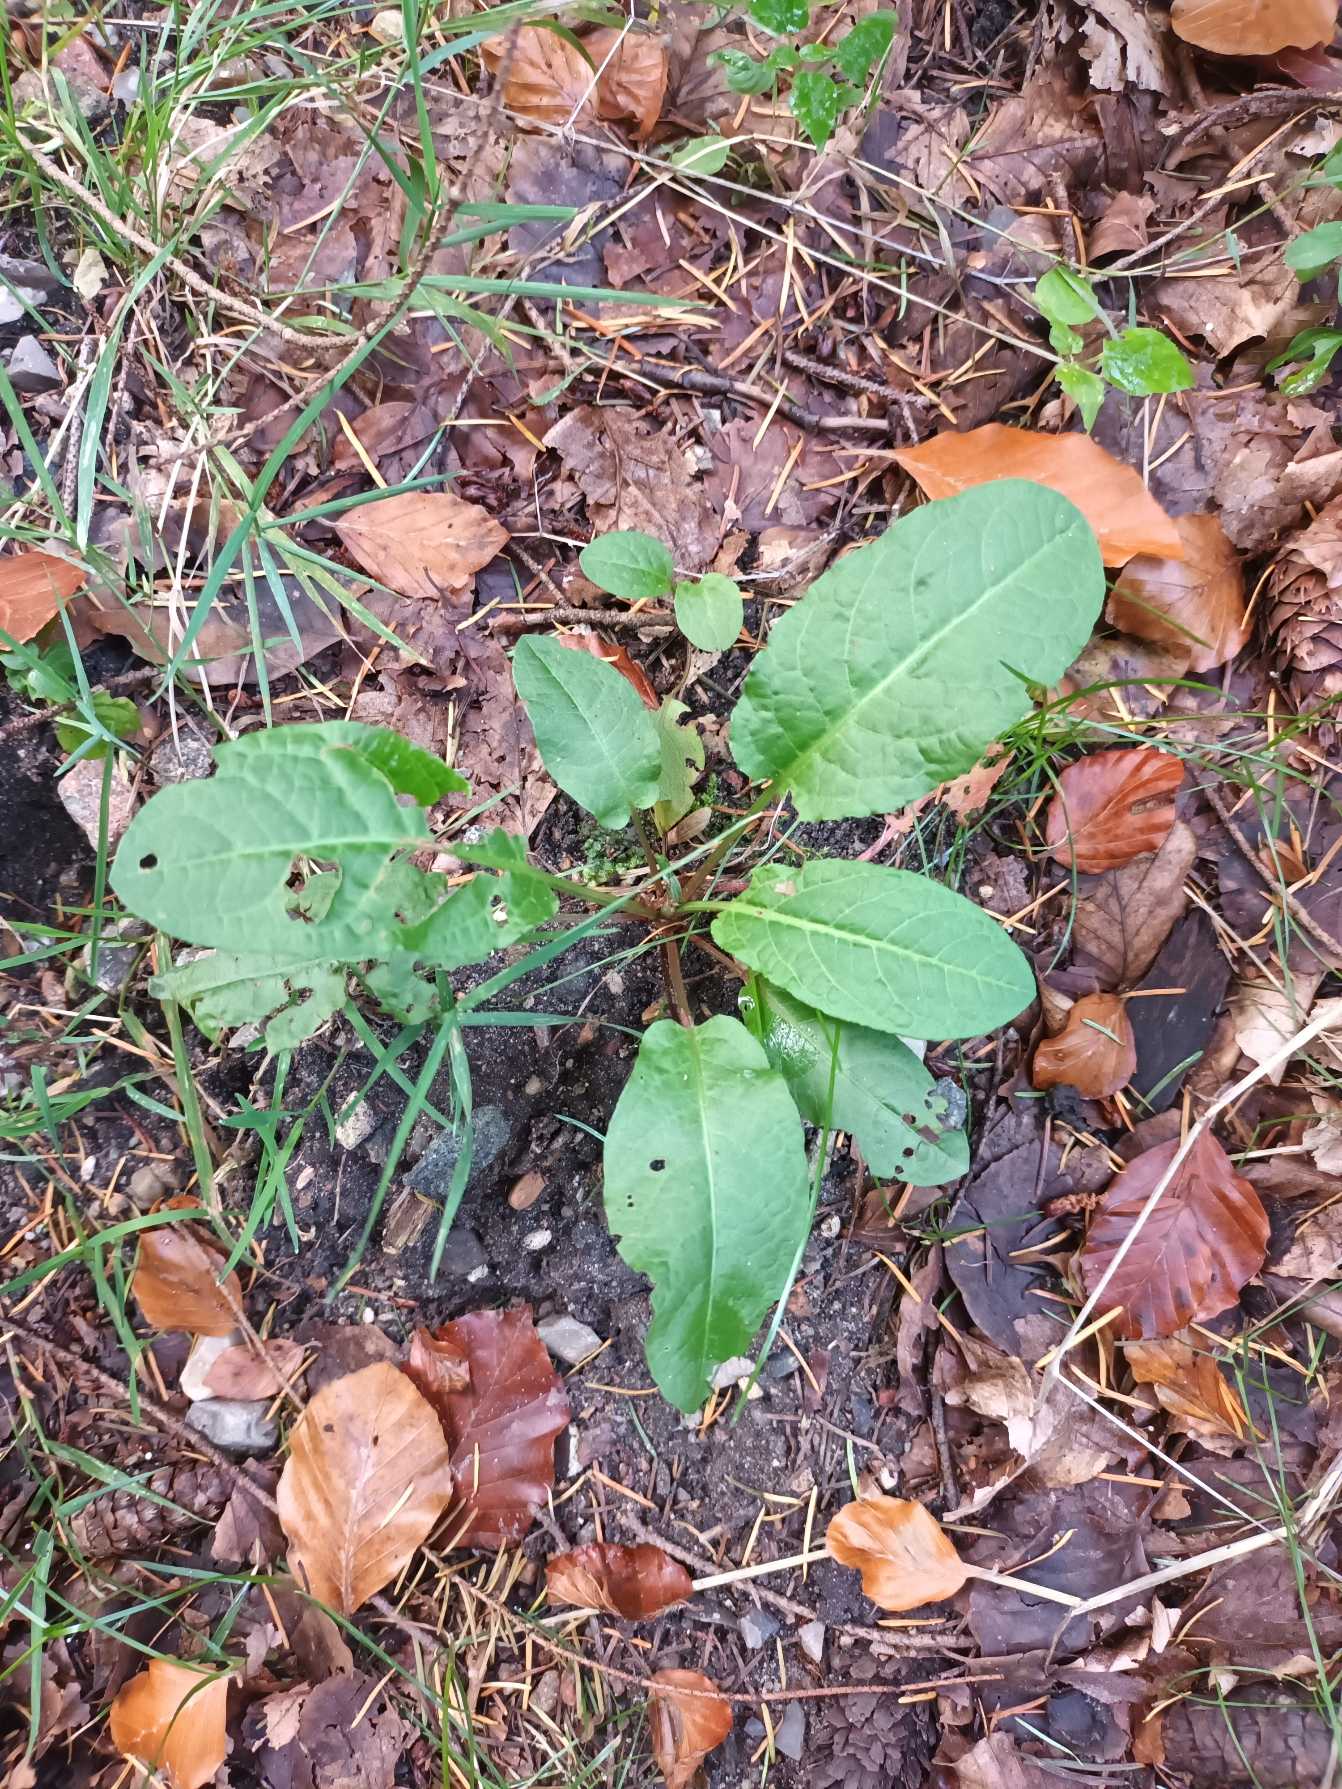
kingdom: Plantae
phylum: Tracheophyta
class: Magnoliopsida
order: Caryophyllales
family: Polygonaceae
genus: Rumex
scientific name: Rumex sanguineus
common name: Skov-skræppe
